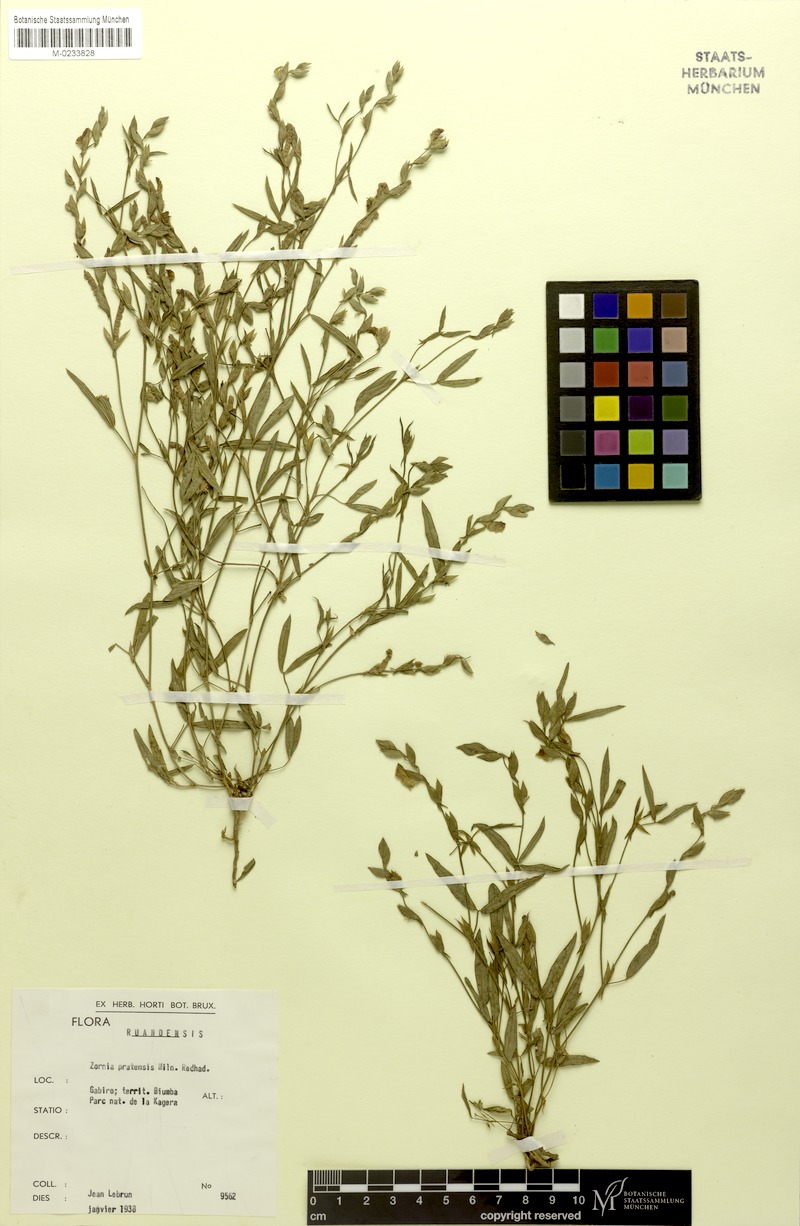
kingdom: Plantae
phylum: Tracheophyta
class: Magnoliopsida
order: Fabales
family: Fabaceae
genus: Zornia
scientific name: Zornia pratensis
